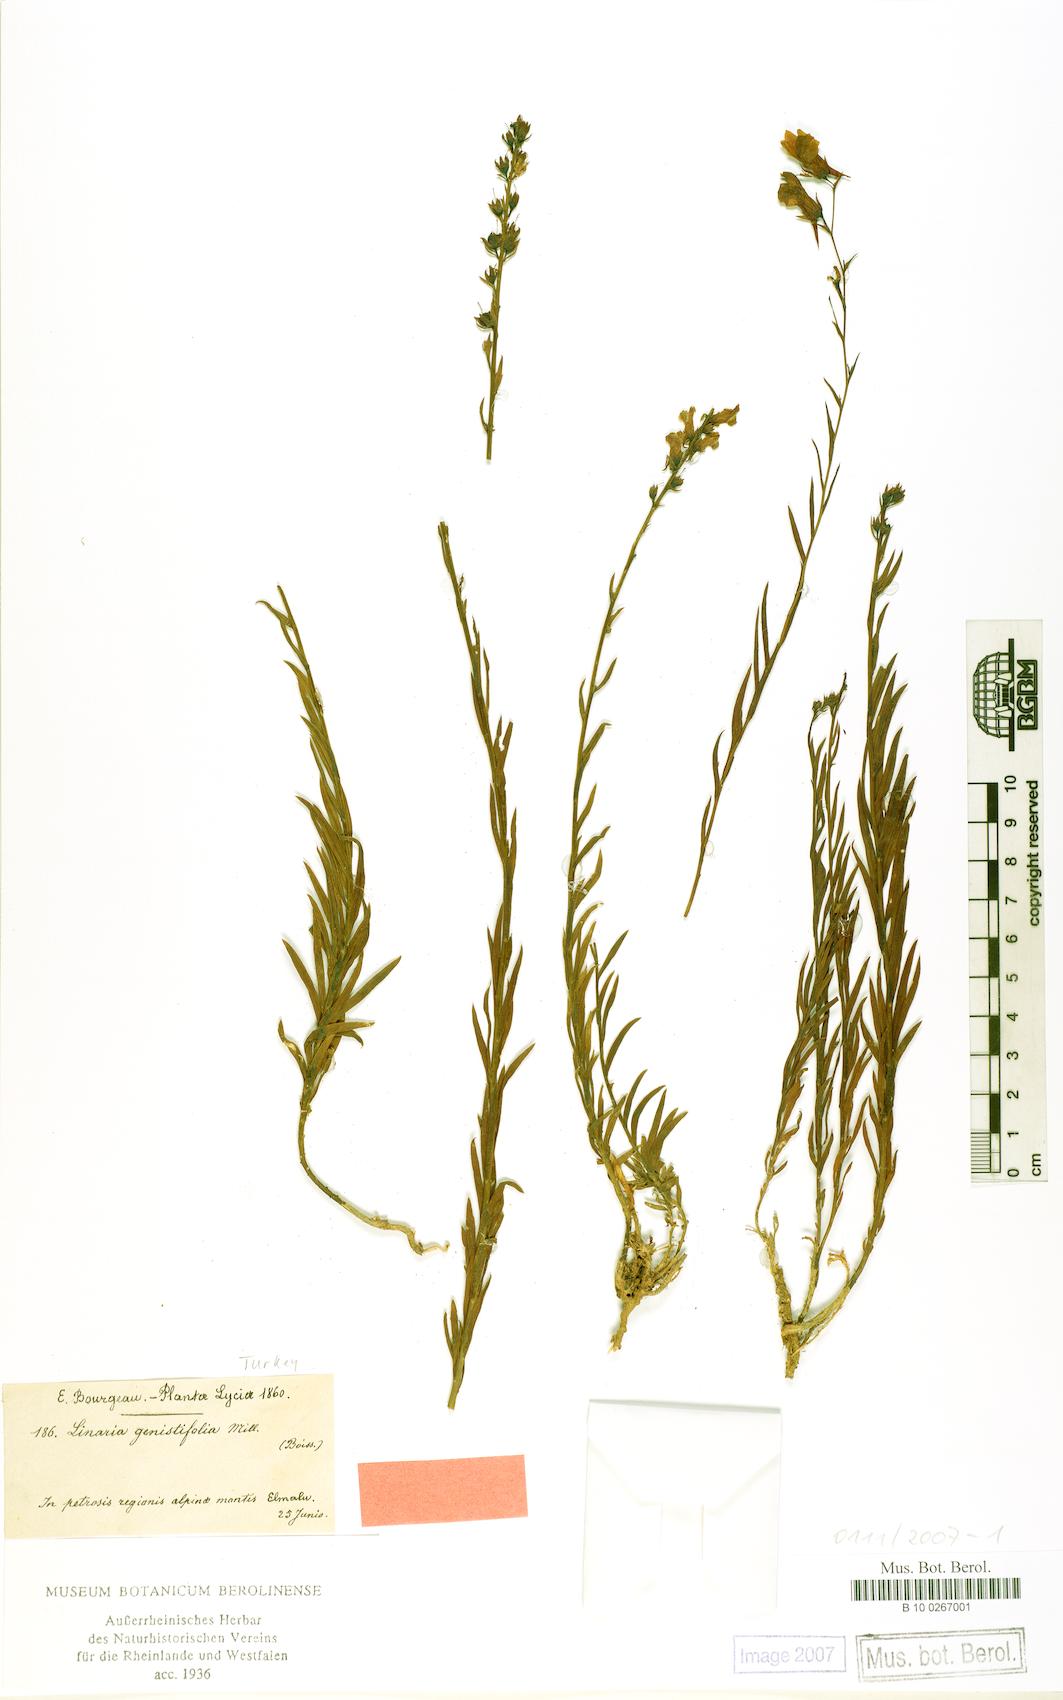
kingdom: Plantae
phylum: Tracheophyta
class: Magnoliopsida
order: Lamiales
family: Plantaginaceae
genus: Linaria
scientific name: Linaria genistifolia
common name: Broomleaf toadflax
